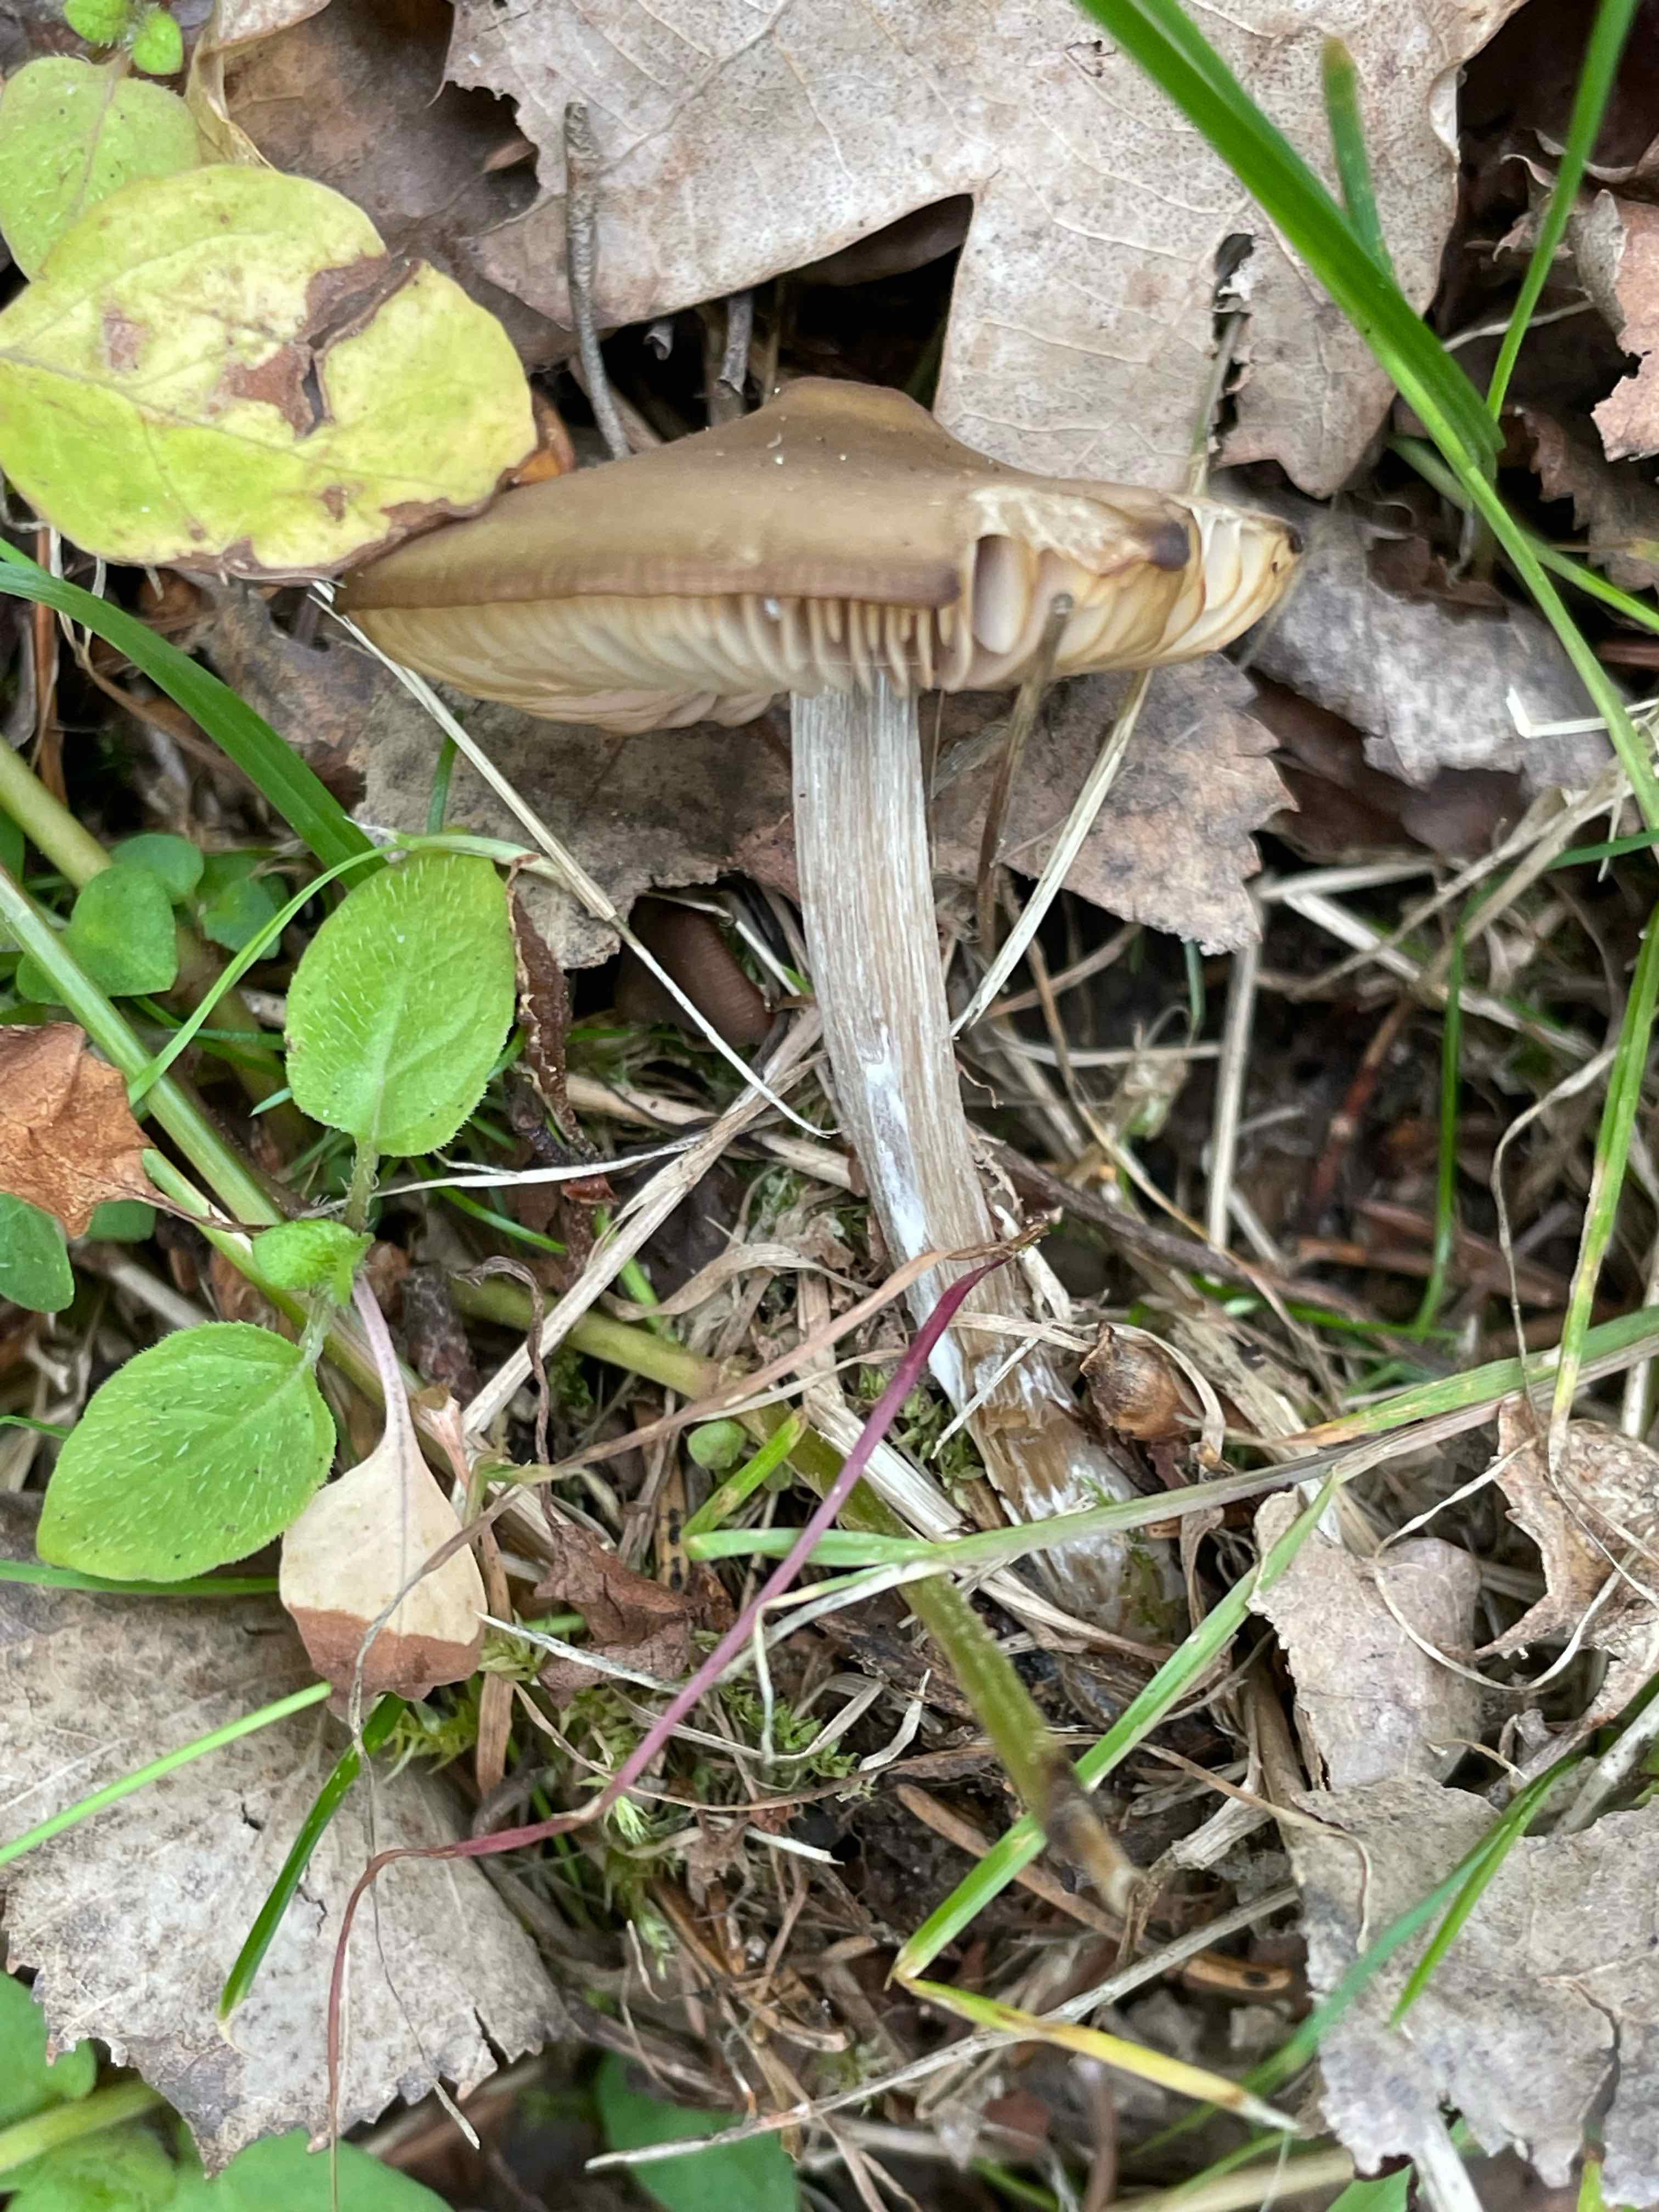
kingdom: Fungi
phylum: Basidiomycota
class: Agaricomycetes
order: Agaricales
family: Entolomataceae
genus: Entoloma
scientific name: Entoloma
